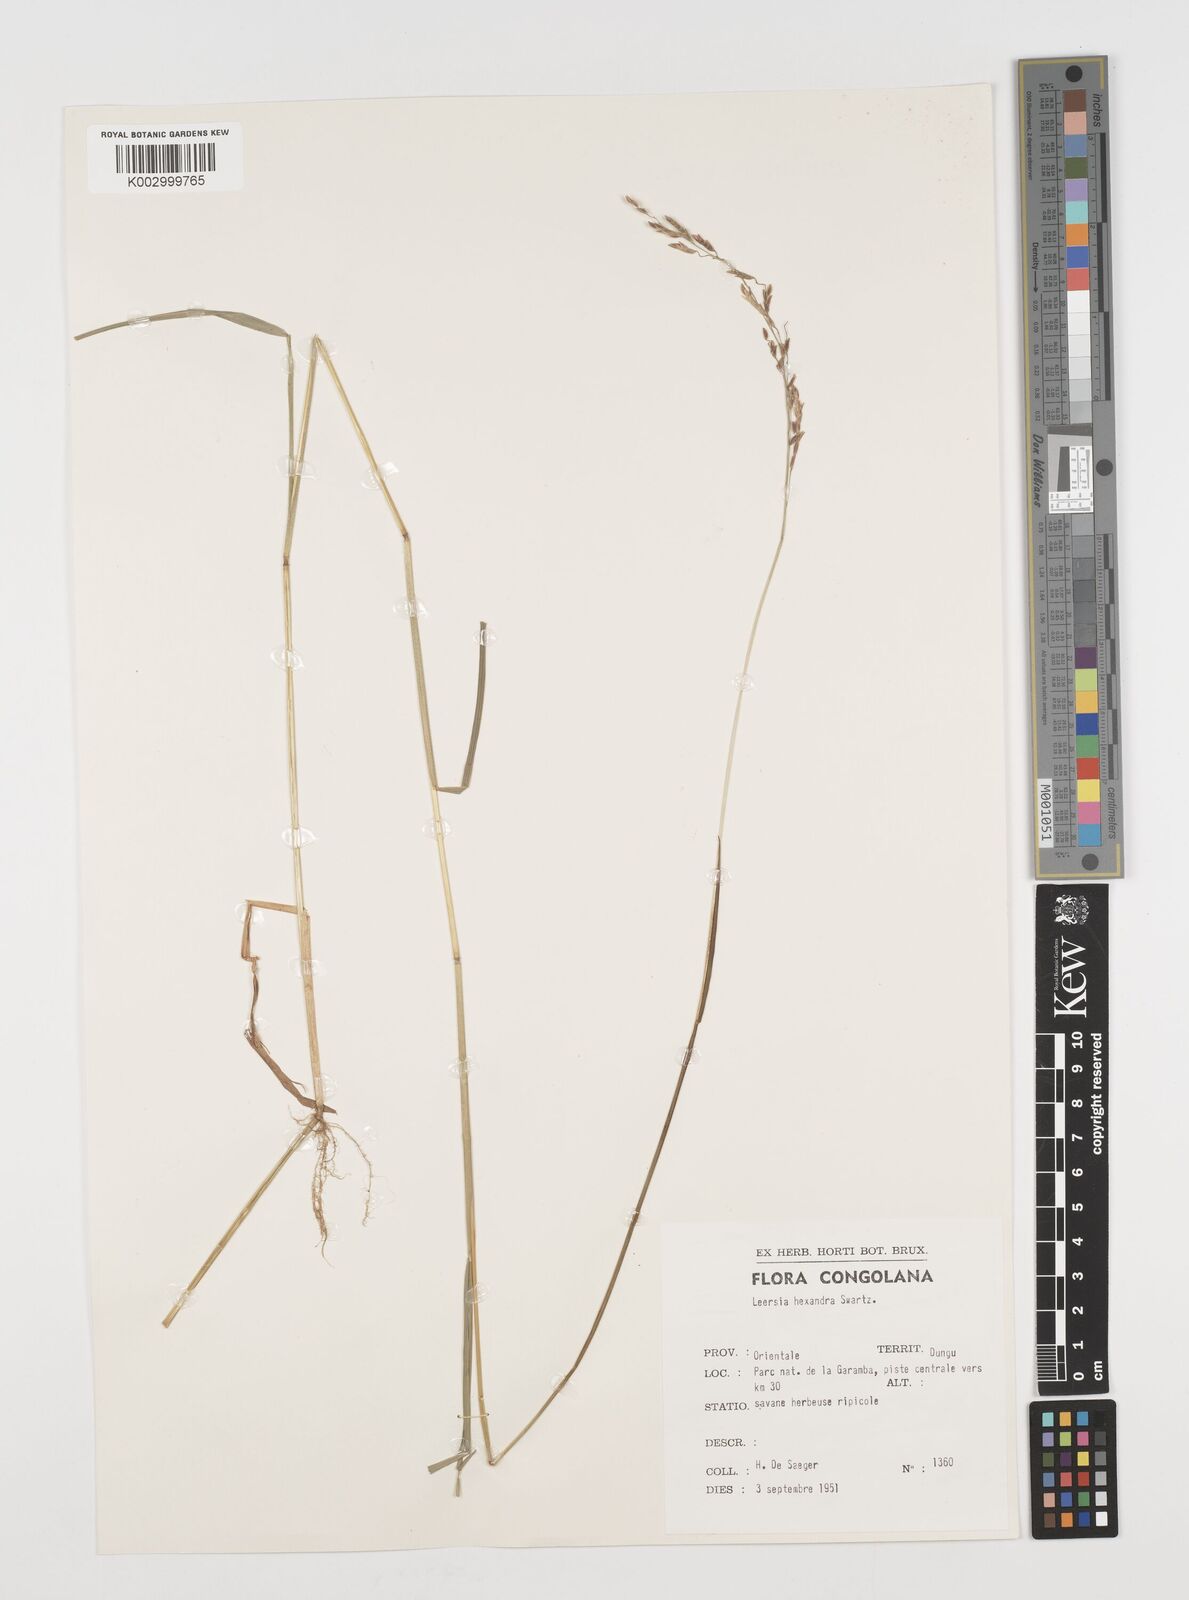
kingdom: Plantae
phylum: Tracheophyta
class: Liliopsida
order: Poales
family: Poaceae
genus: Leersia
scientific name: Leersia hexandra
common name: Southern cut grass
